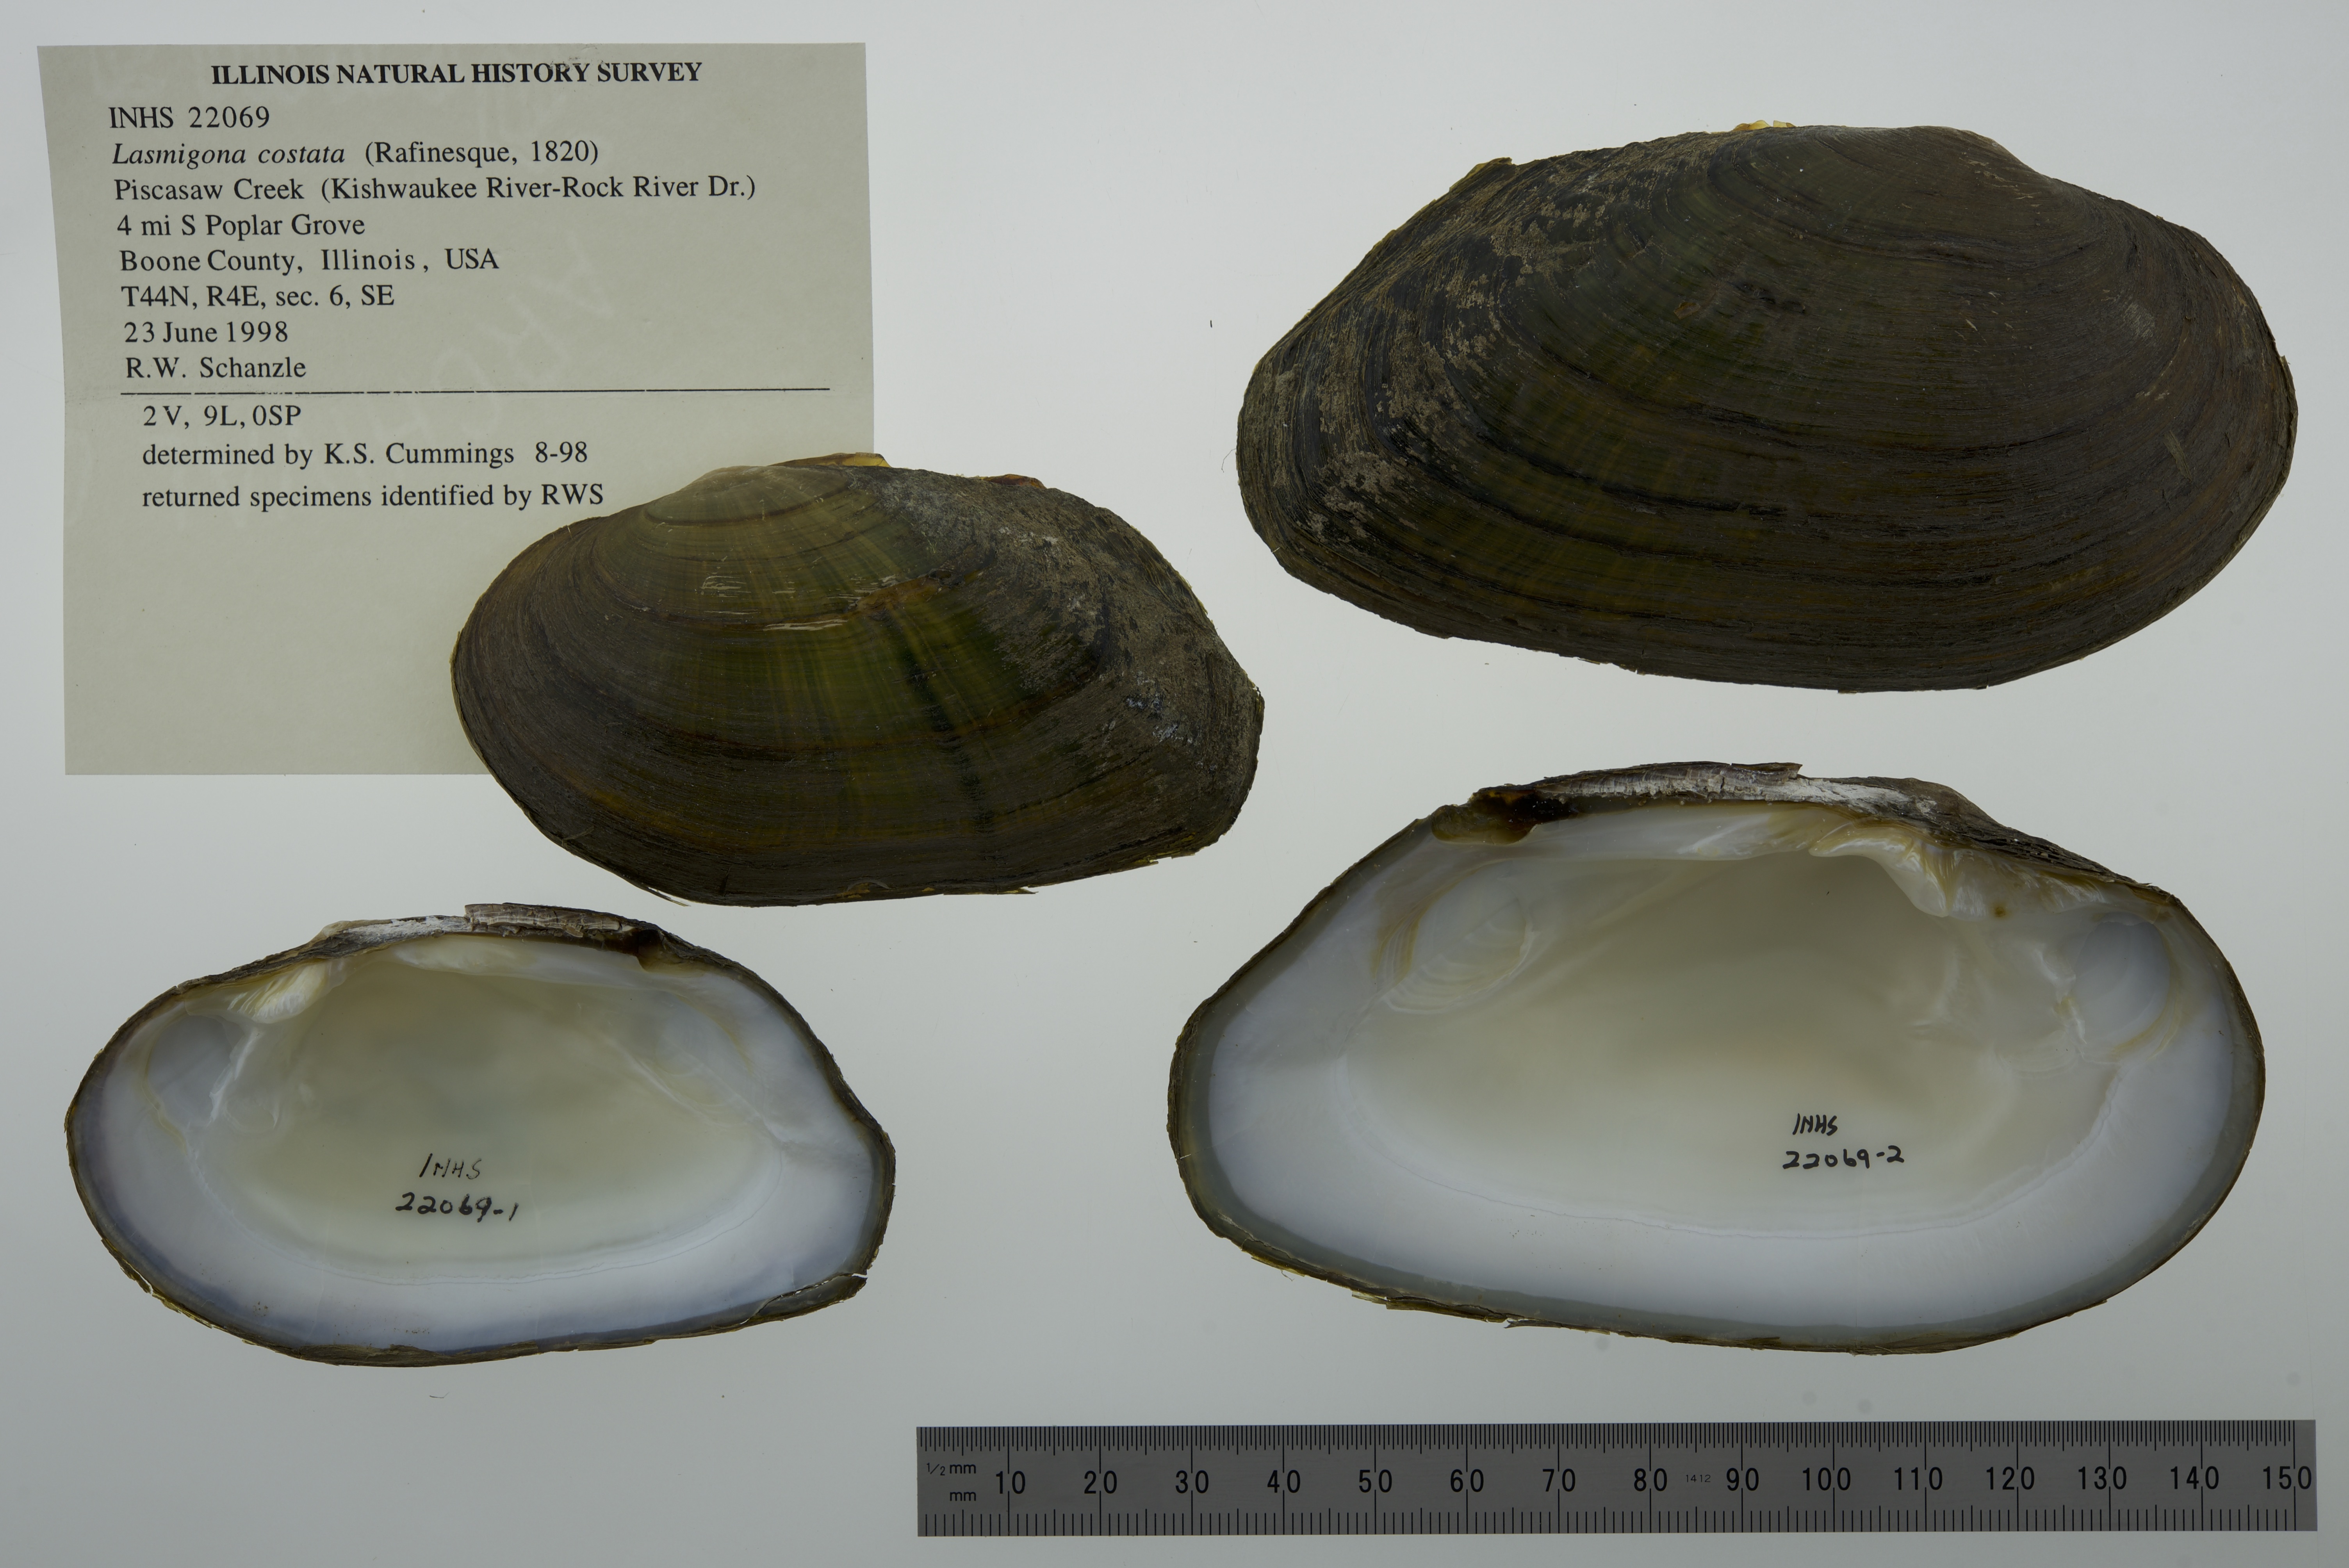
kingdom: Animalia
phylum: Mollusca
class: Bivalvia
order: Unionida
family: Unionidae
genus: Lasmigona
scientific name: Lasmigona costata
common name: Flutedshell
